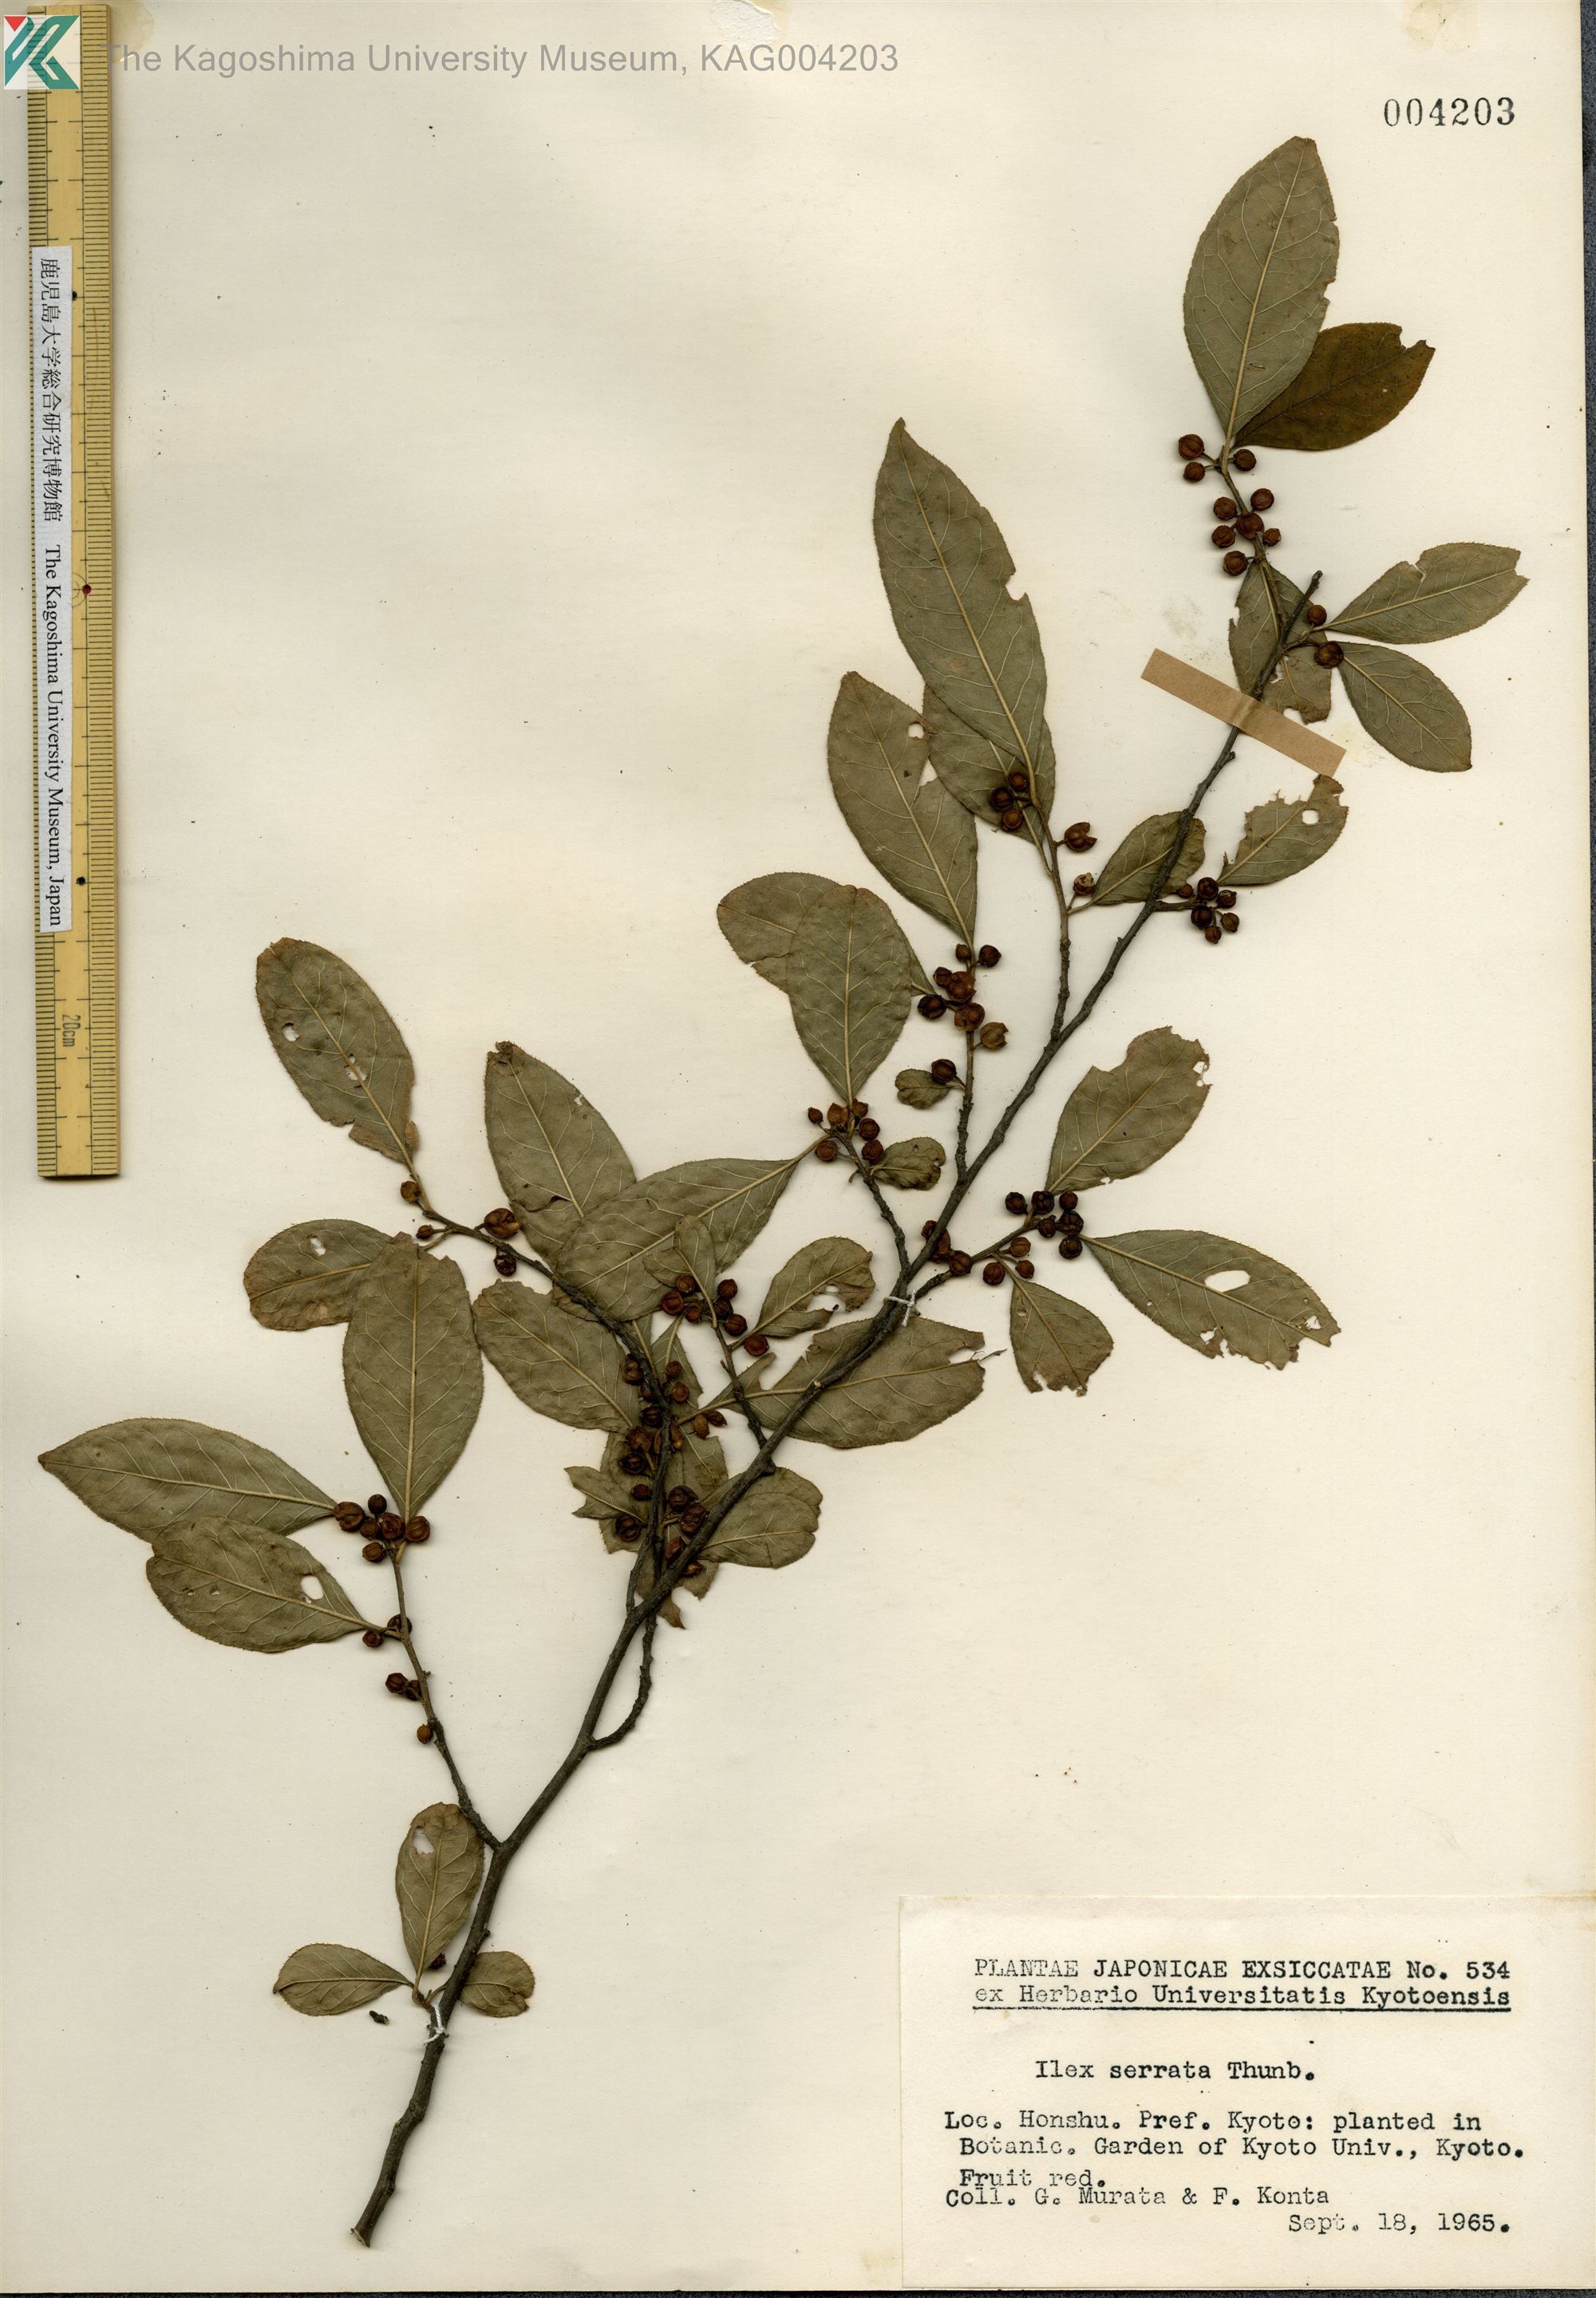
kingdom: Plantae
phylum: Tracheophyta
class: Magnoliopsida
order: Aquifoliales
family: Aquifoliaceae
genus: Ilex
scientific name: Ilex serrata
